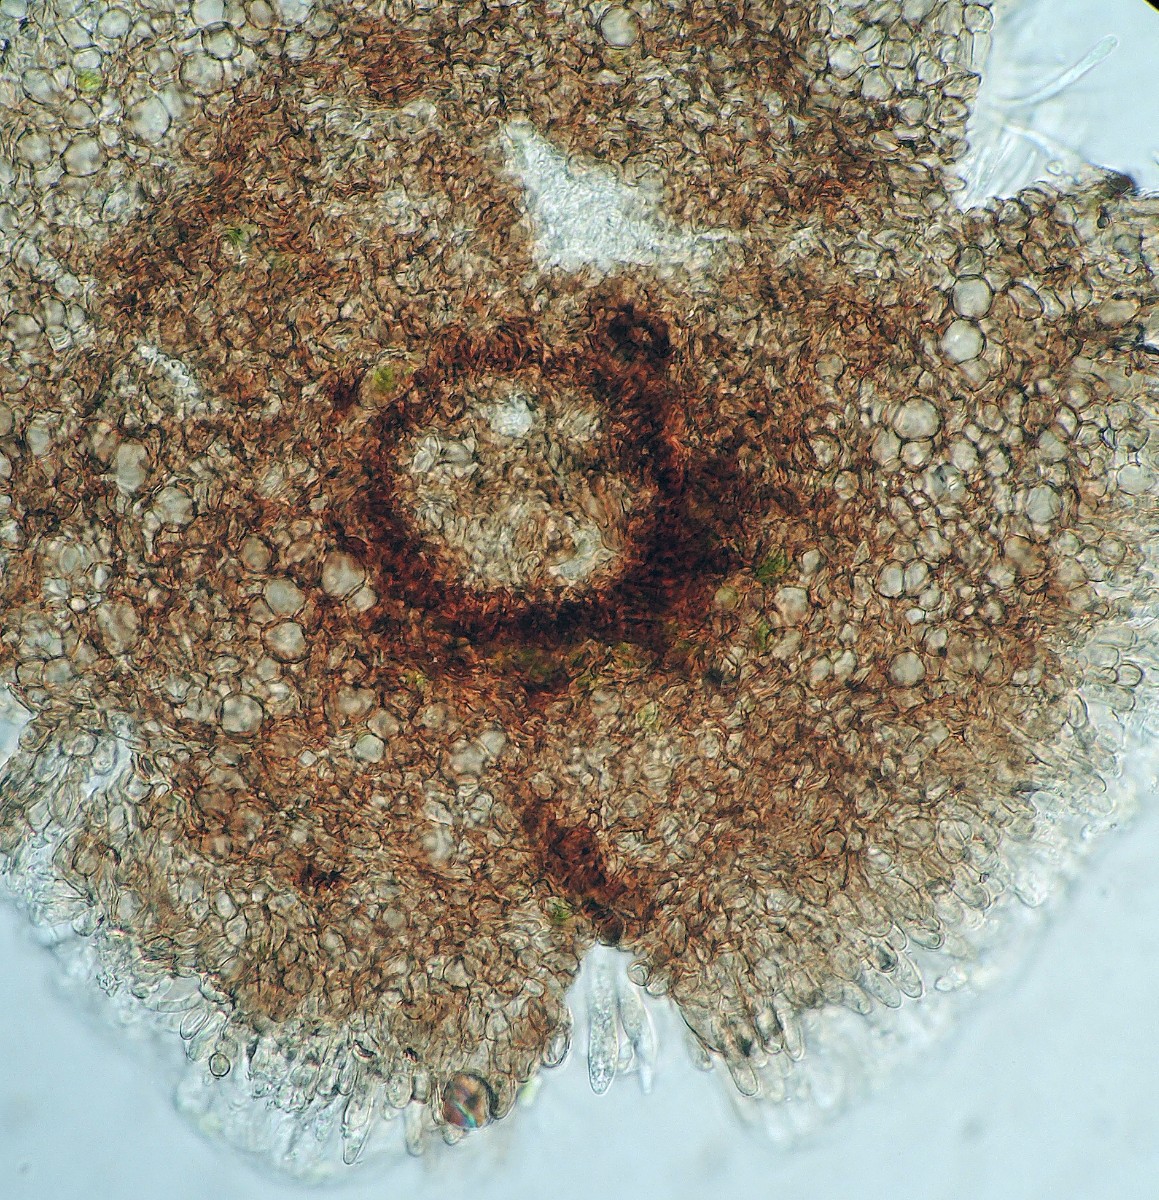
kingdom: Fungi
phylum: Ascomycota
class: Leotiomycetes
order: Helotiales
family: Dermateaceae
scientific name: Dermateaceae
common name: gråskivefamilien
